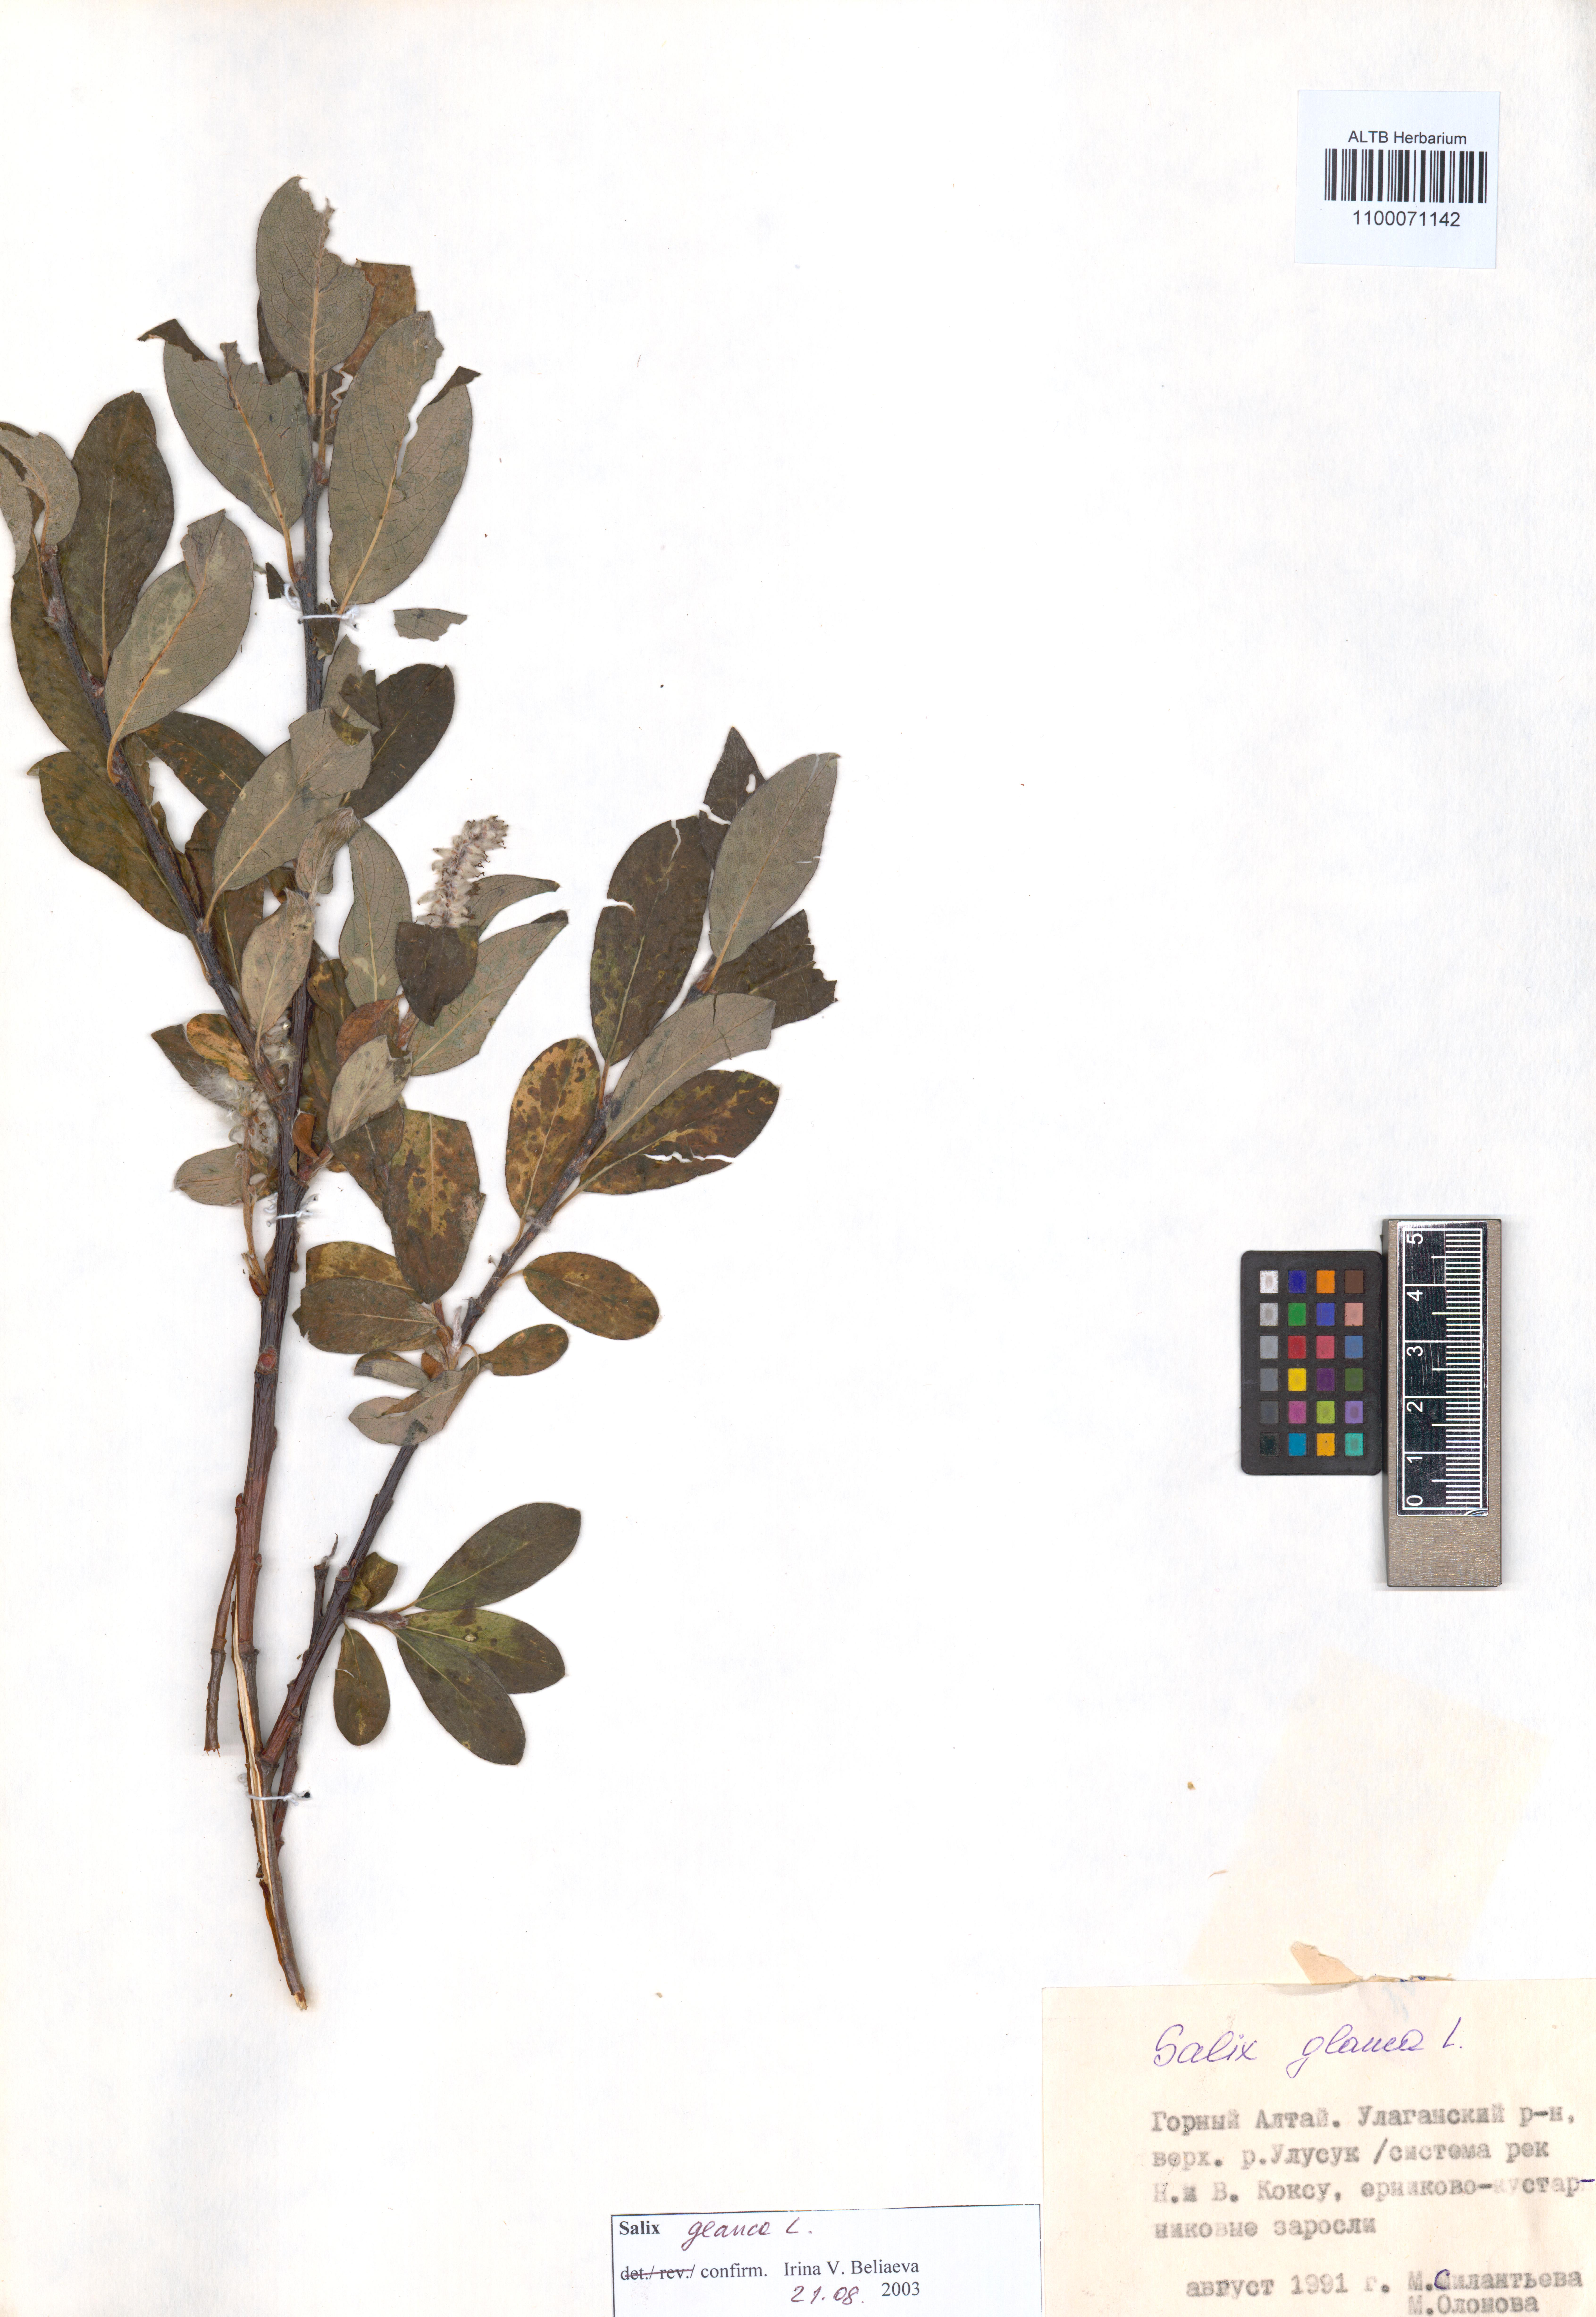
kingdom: Plantae
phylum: Tracheophyta
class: Magnoliopsida
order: Malpighiales
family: Salicaceae
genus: Salix
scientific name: Salix glauca
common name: Glaucous willow
